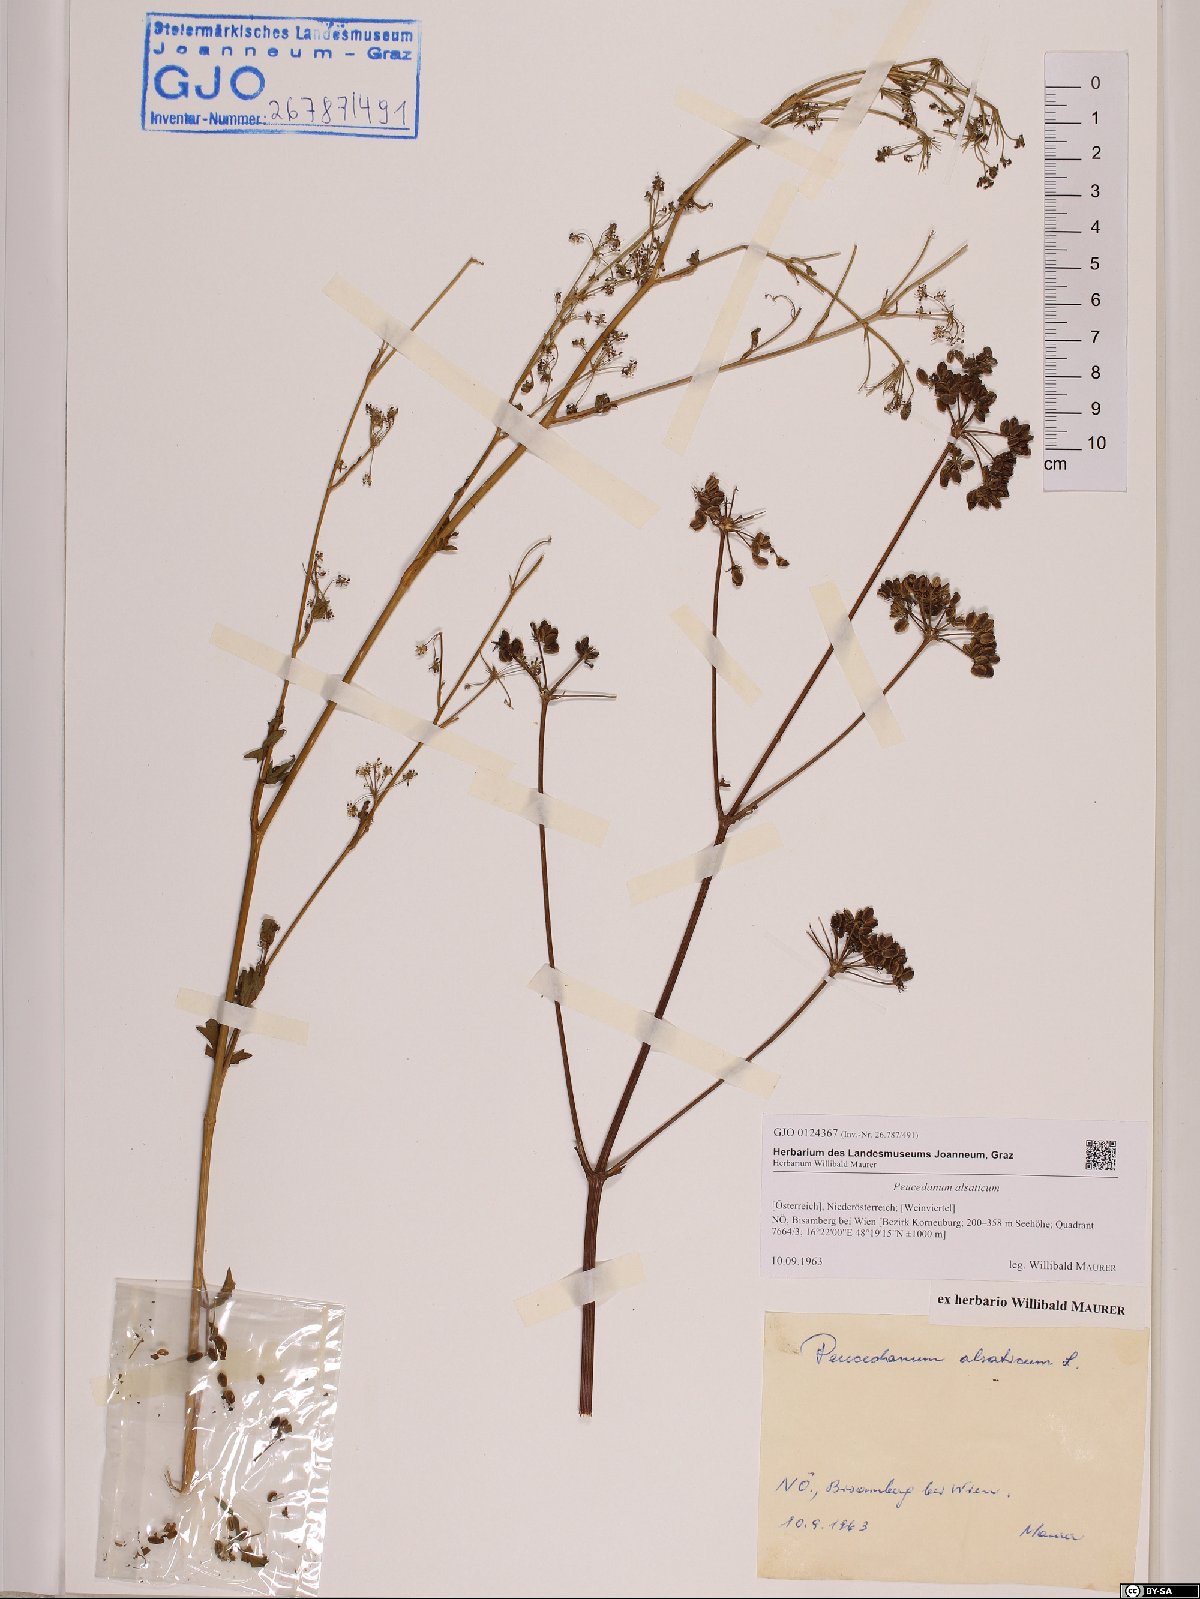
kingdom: Plantae
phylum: Tracheophyta
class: Magnoliopsida
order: Apiales
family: Apiaceae
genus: Xanthoselinum
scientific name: Xanthoselinum alsaticum
